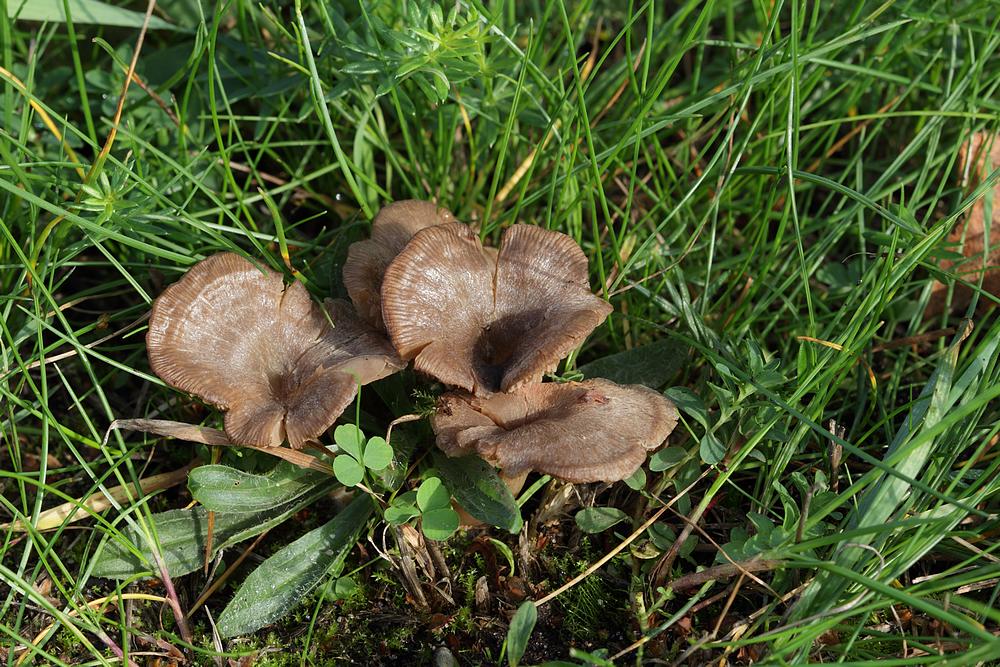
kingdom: Fungi
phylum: Basidiomycota
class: Agaricomycetes
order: Agaricales
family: Entolomataceae
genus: Entoloma
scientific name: Entoloma undatum
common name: bæltet rødblad
